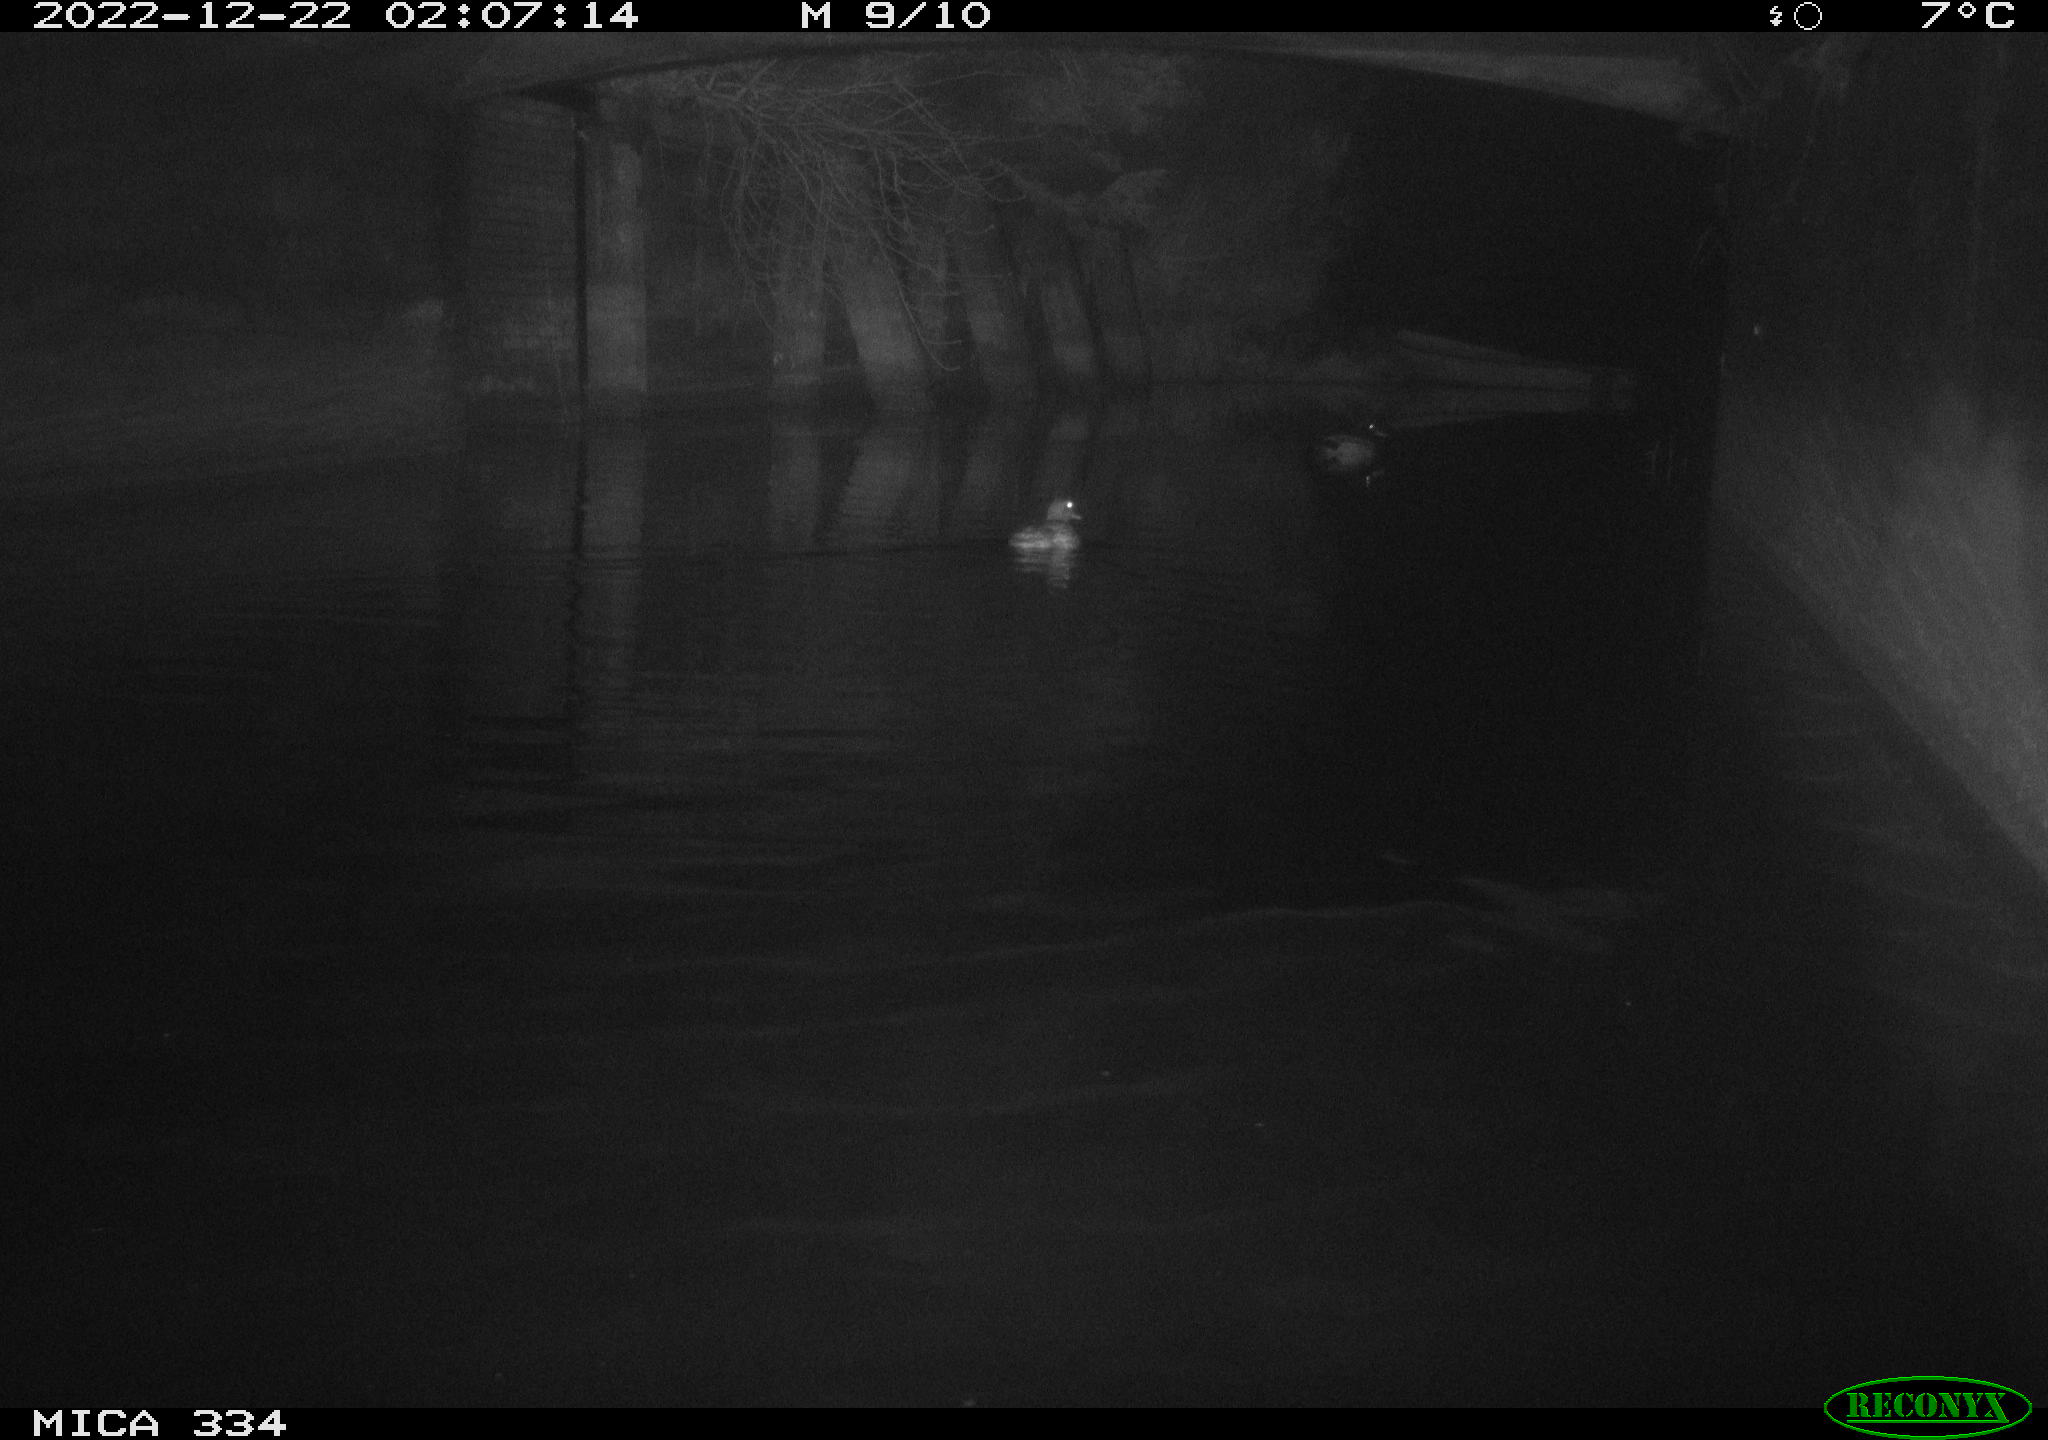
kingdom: Animalia
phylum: Chordata
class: Aves
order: Anseriformes
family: Anatidae
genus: Anas
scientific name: Anas
